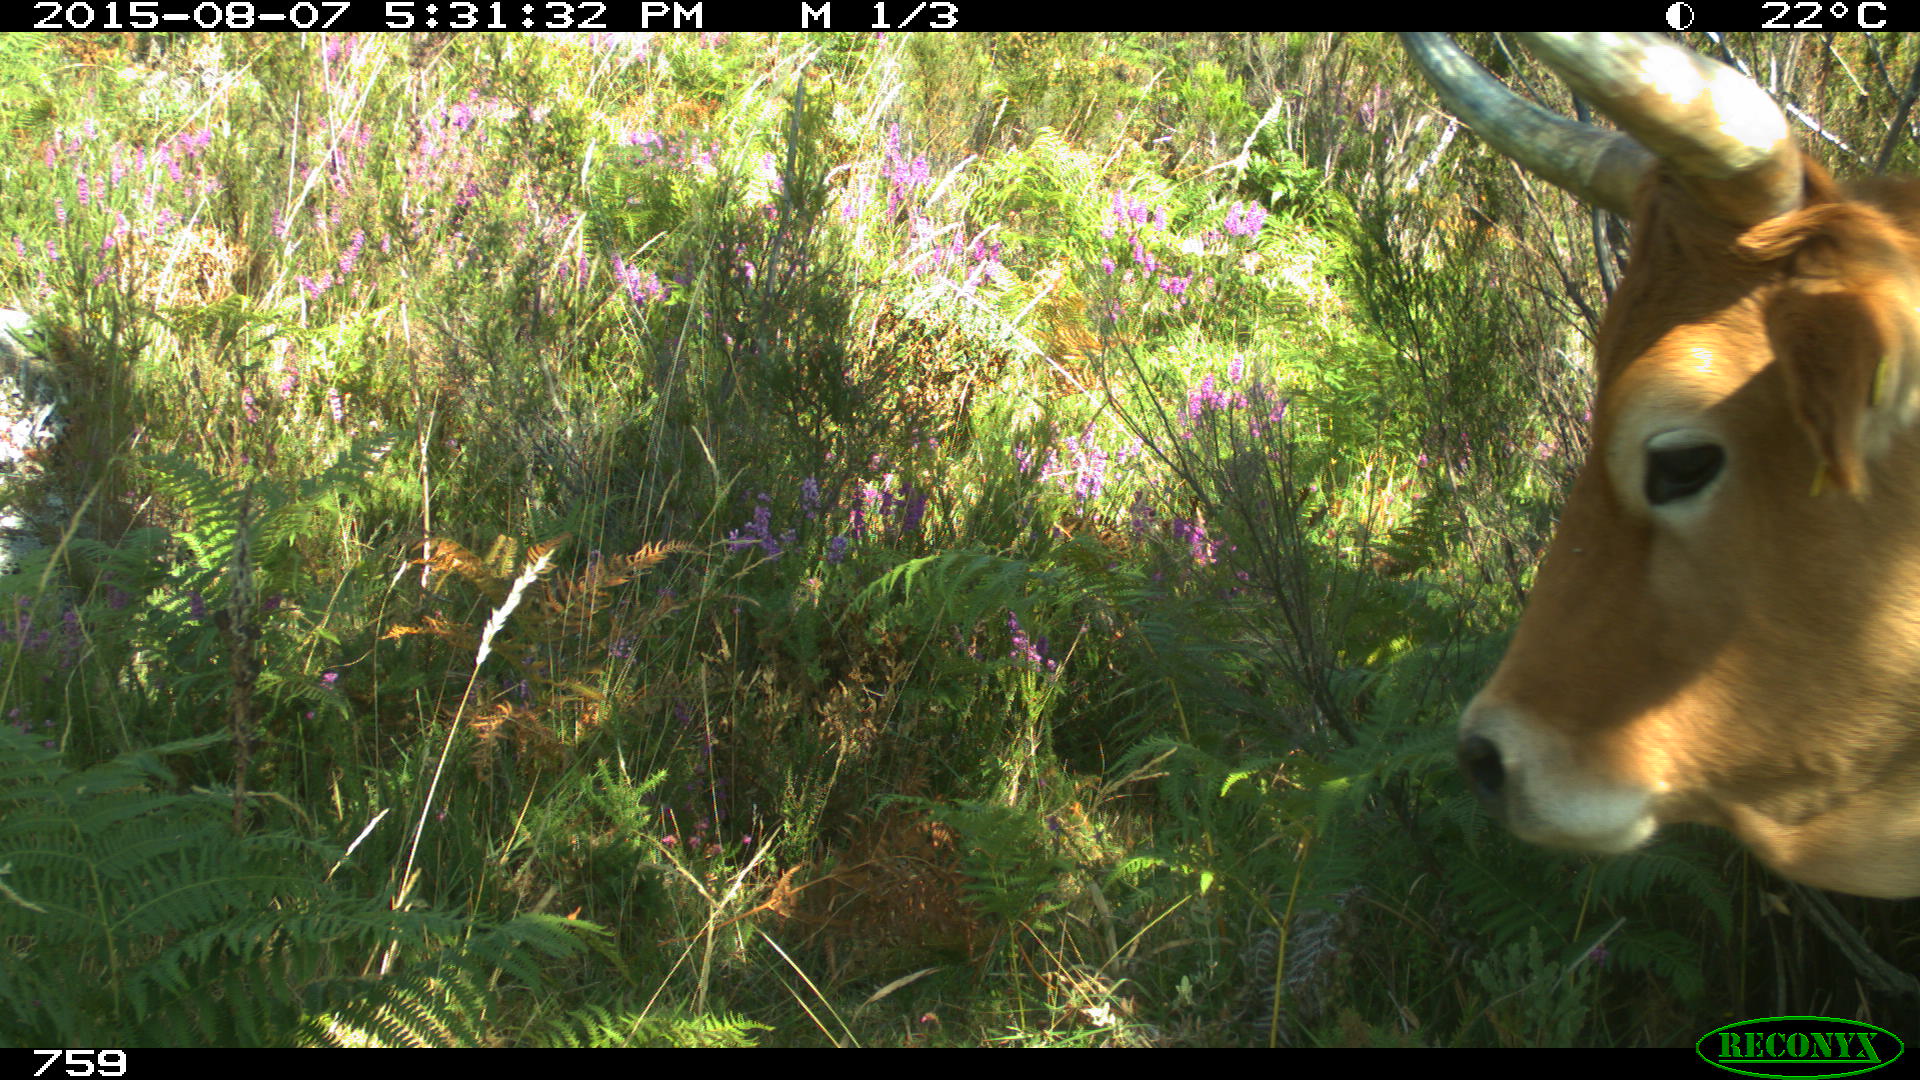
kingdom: Animalia
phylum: Chordata
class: Mammalia
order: Artiodactyla
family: Bovidae
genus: Bos
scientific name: Bos taurus
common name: Domesticated cattle
